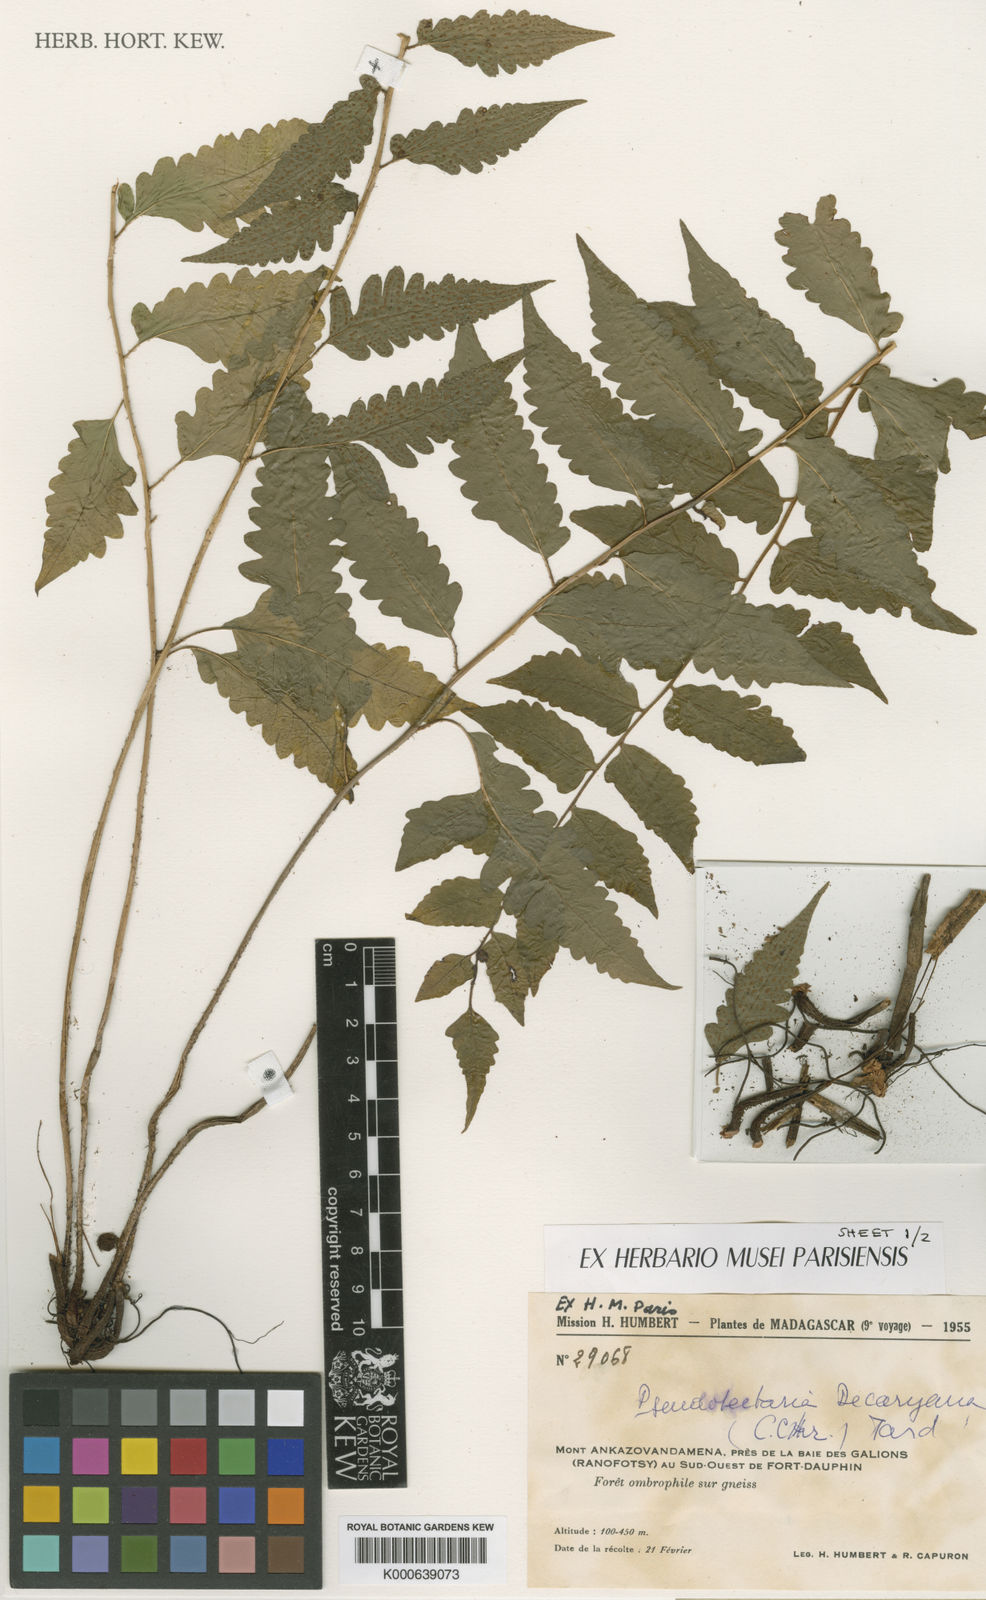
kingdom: Plantae
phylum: Tracheophyta
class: Polypodiopsida
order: Polypodiales
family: Dryopteridaceae
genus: Ctenitis
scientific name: Ctenitis decaryana
